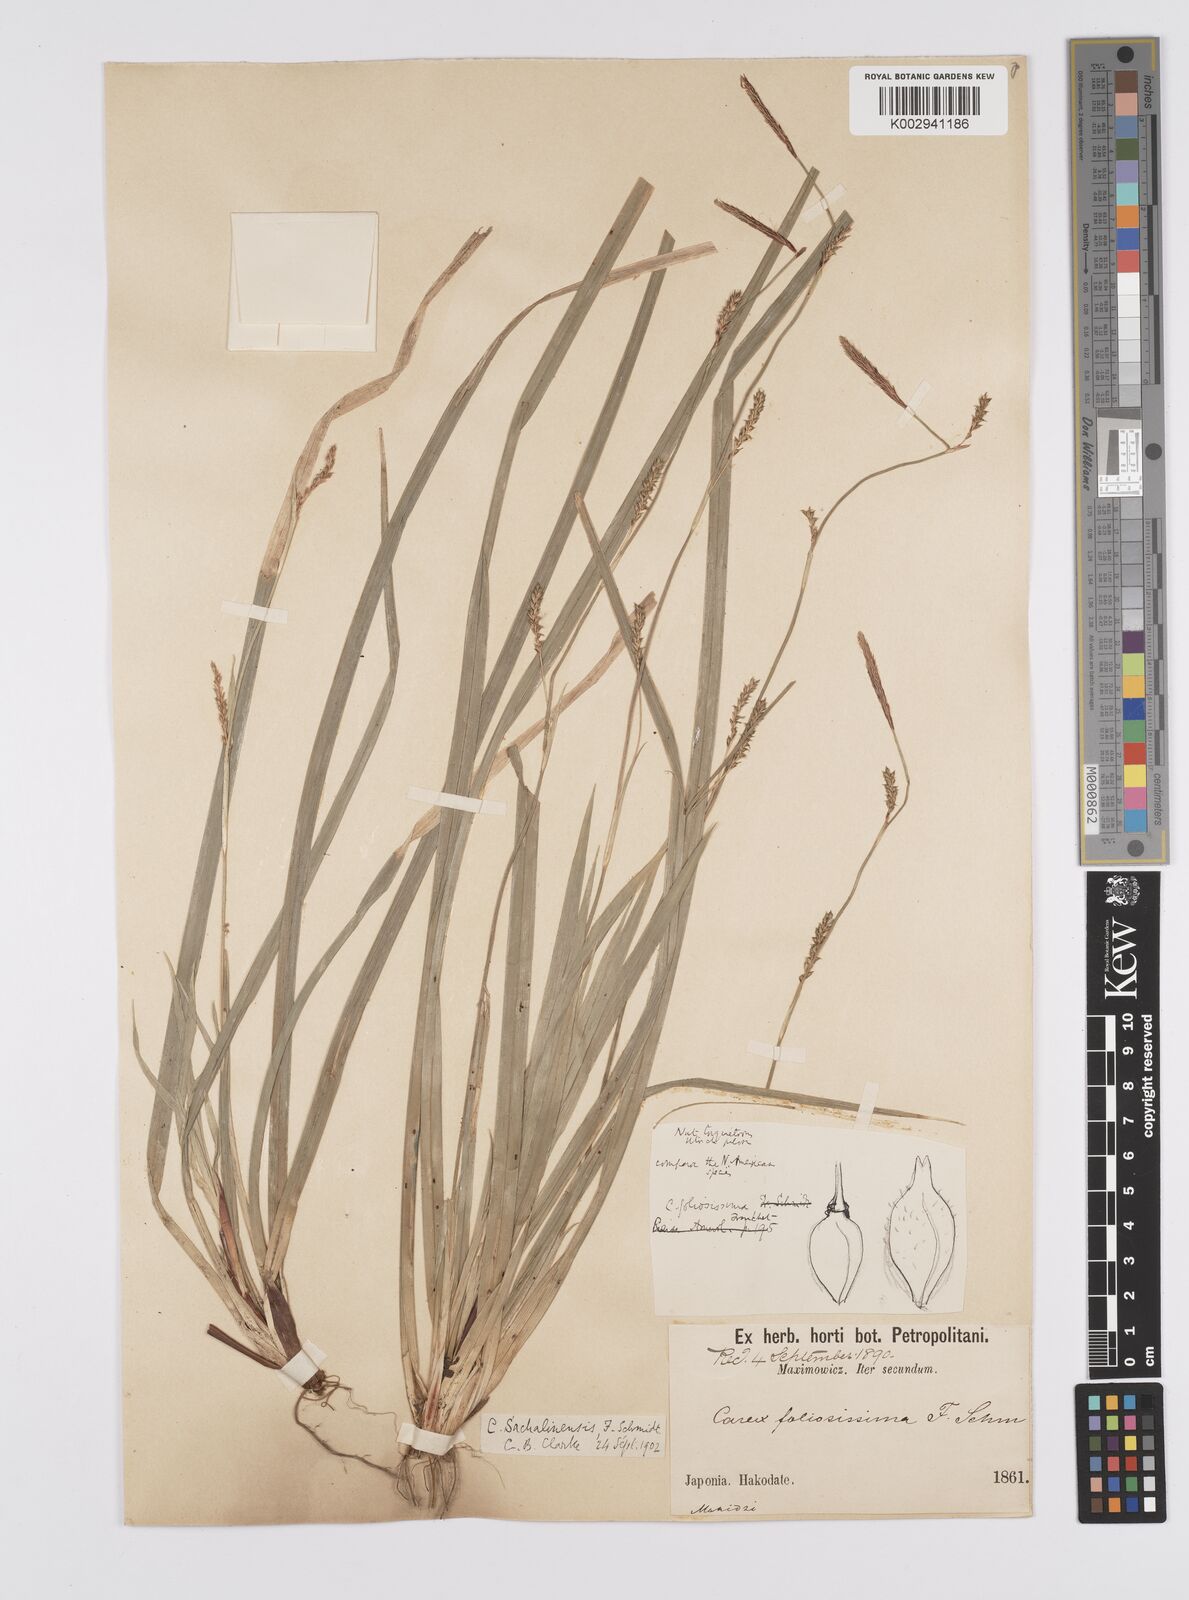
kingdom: Plantae
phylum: Tracheophyta
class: Liliopsida
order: Poales
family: Cyperaceae
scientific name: Cyperaceae
